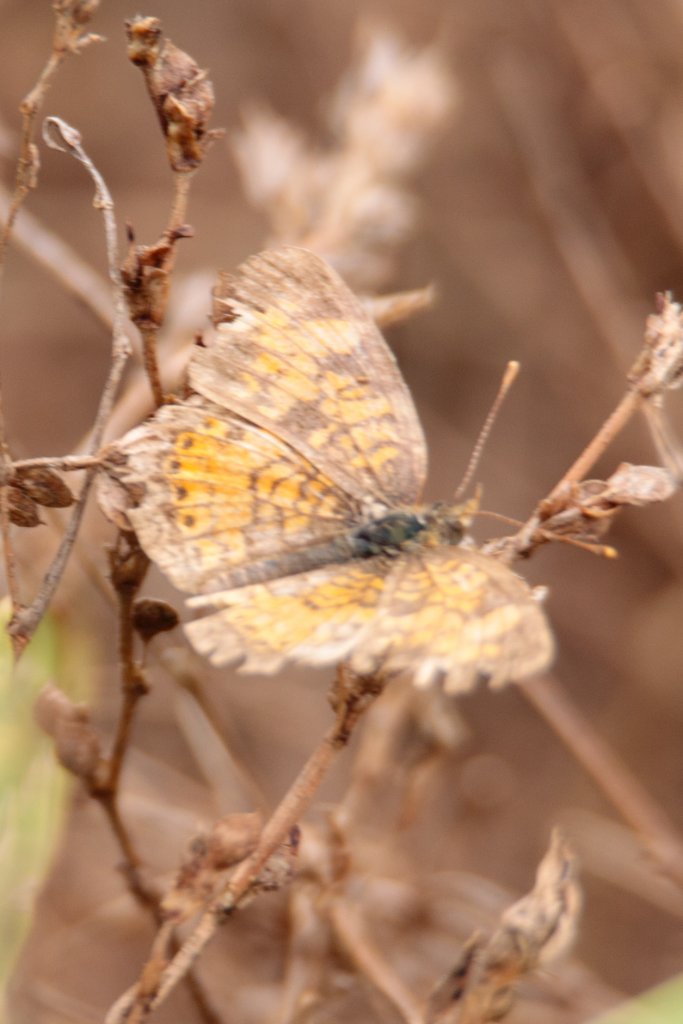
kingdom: Animalia
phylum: Arthropoda
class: Insecta
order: Lepidoptera
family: Nymphalidae
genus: Phyciodes
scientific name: Phyciodes tharos
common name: Pearl Crescent
